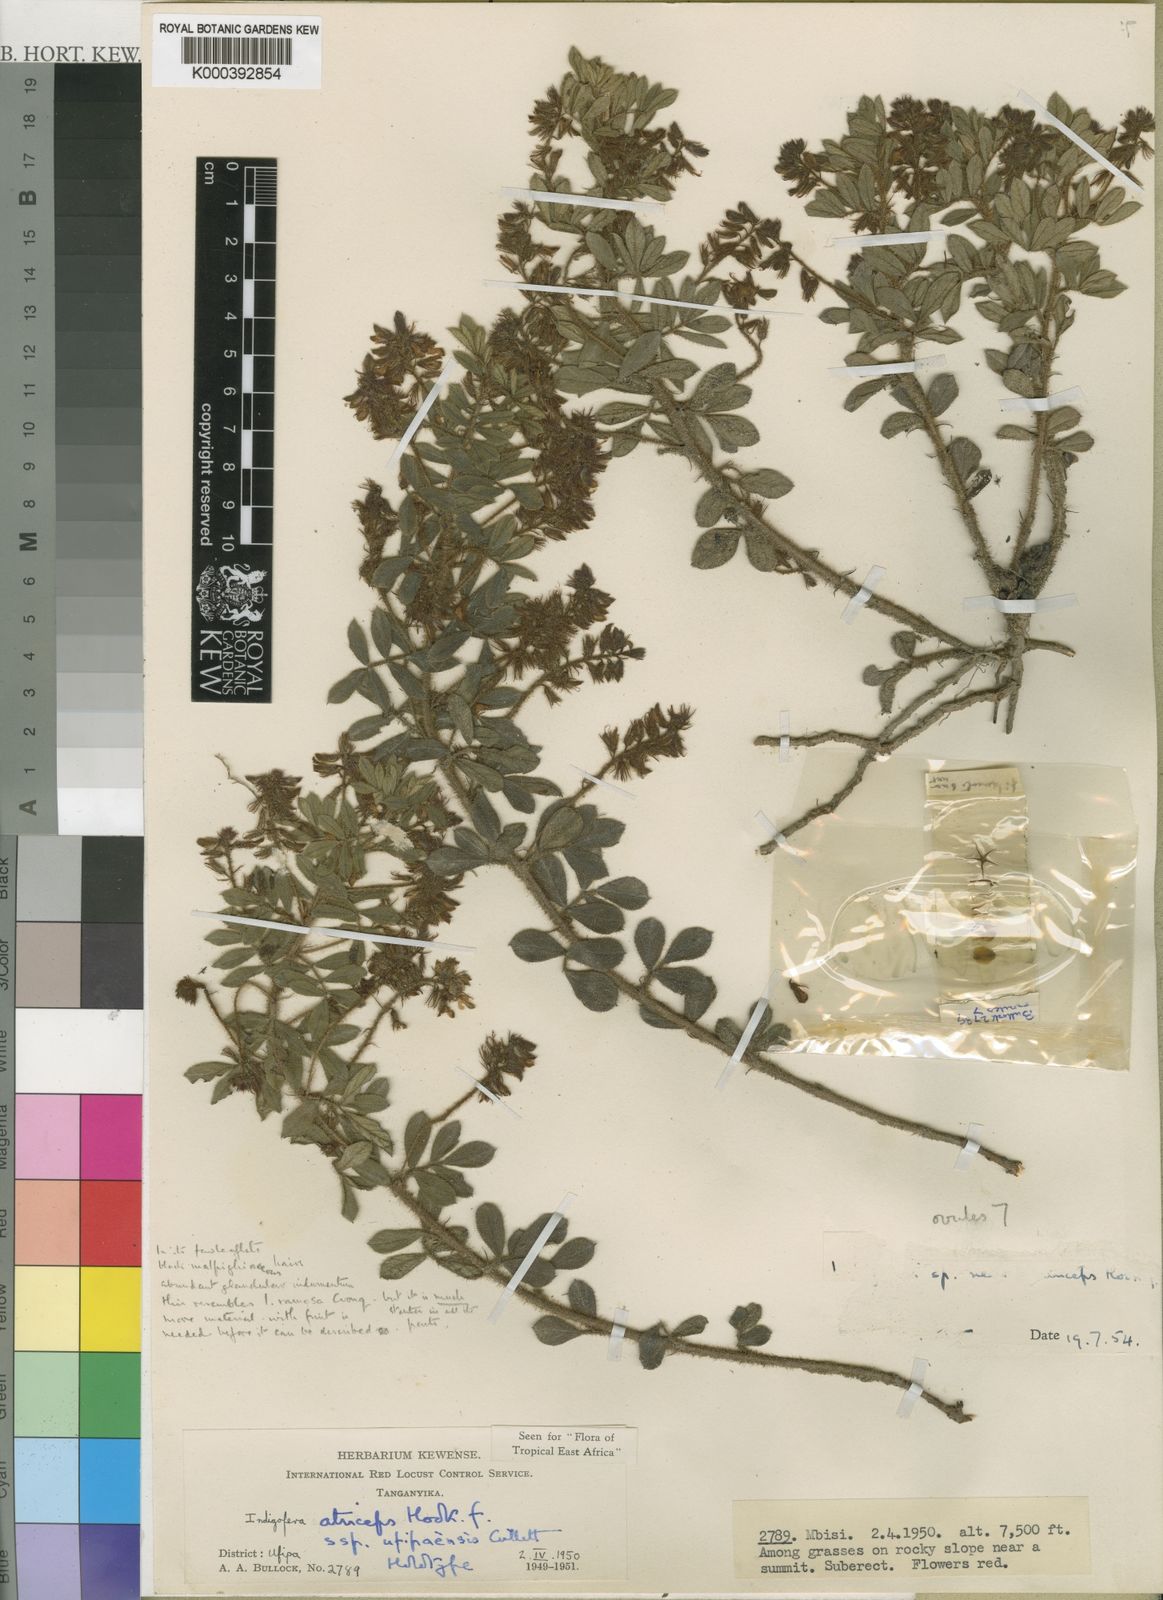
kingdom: Plantae
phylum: Tracheophyta
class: Magnoliopsida
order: Fabales
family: Fabaceae
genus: Indigofera
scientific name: Indigofera atriceps
